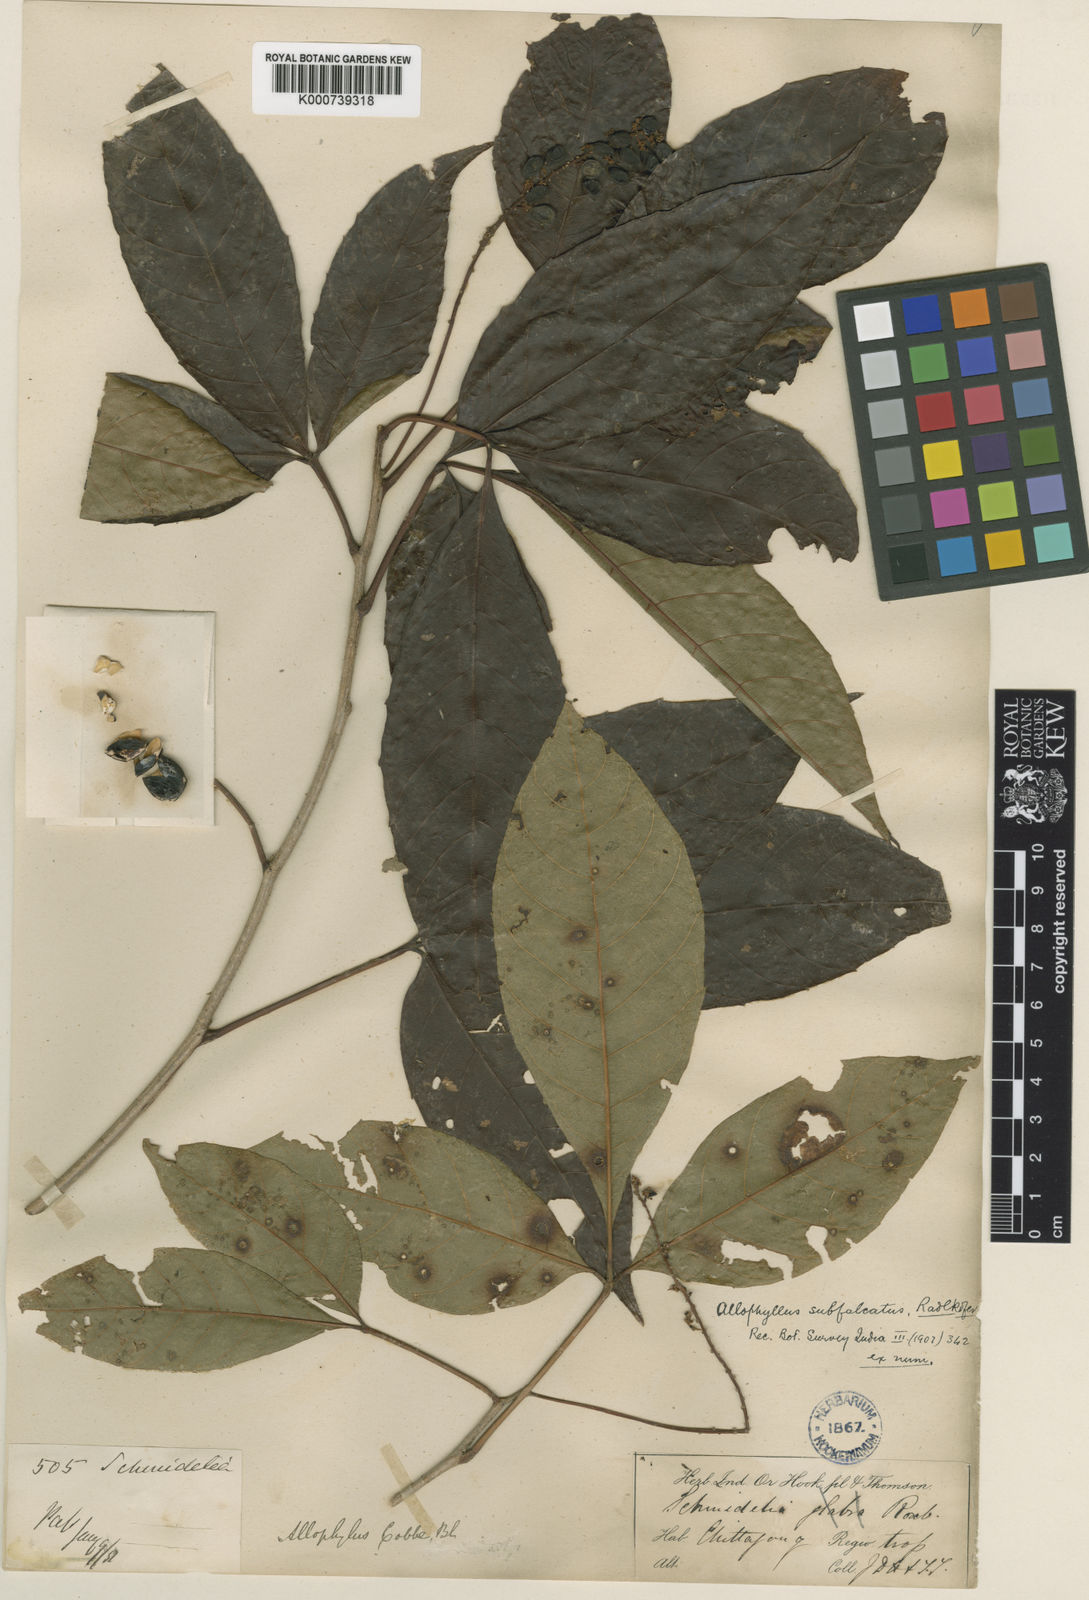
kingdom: Plantae
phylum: Tracheophyta
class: Magnoliopsida
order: Sapindales
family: Sapindaceae
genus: Allophylus
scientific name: Allophylus subfalcatus
